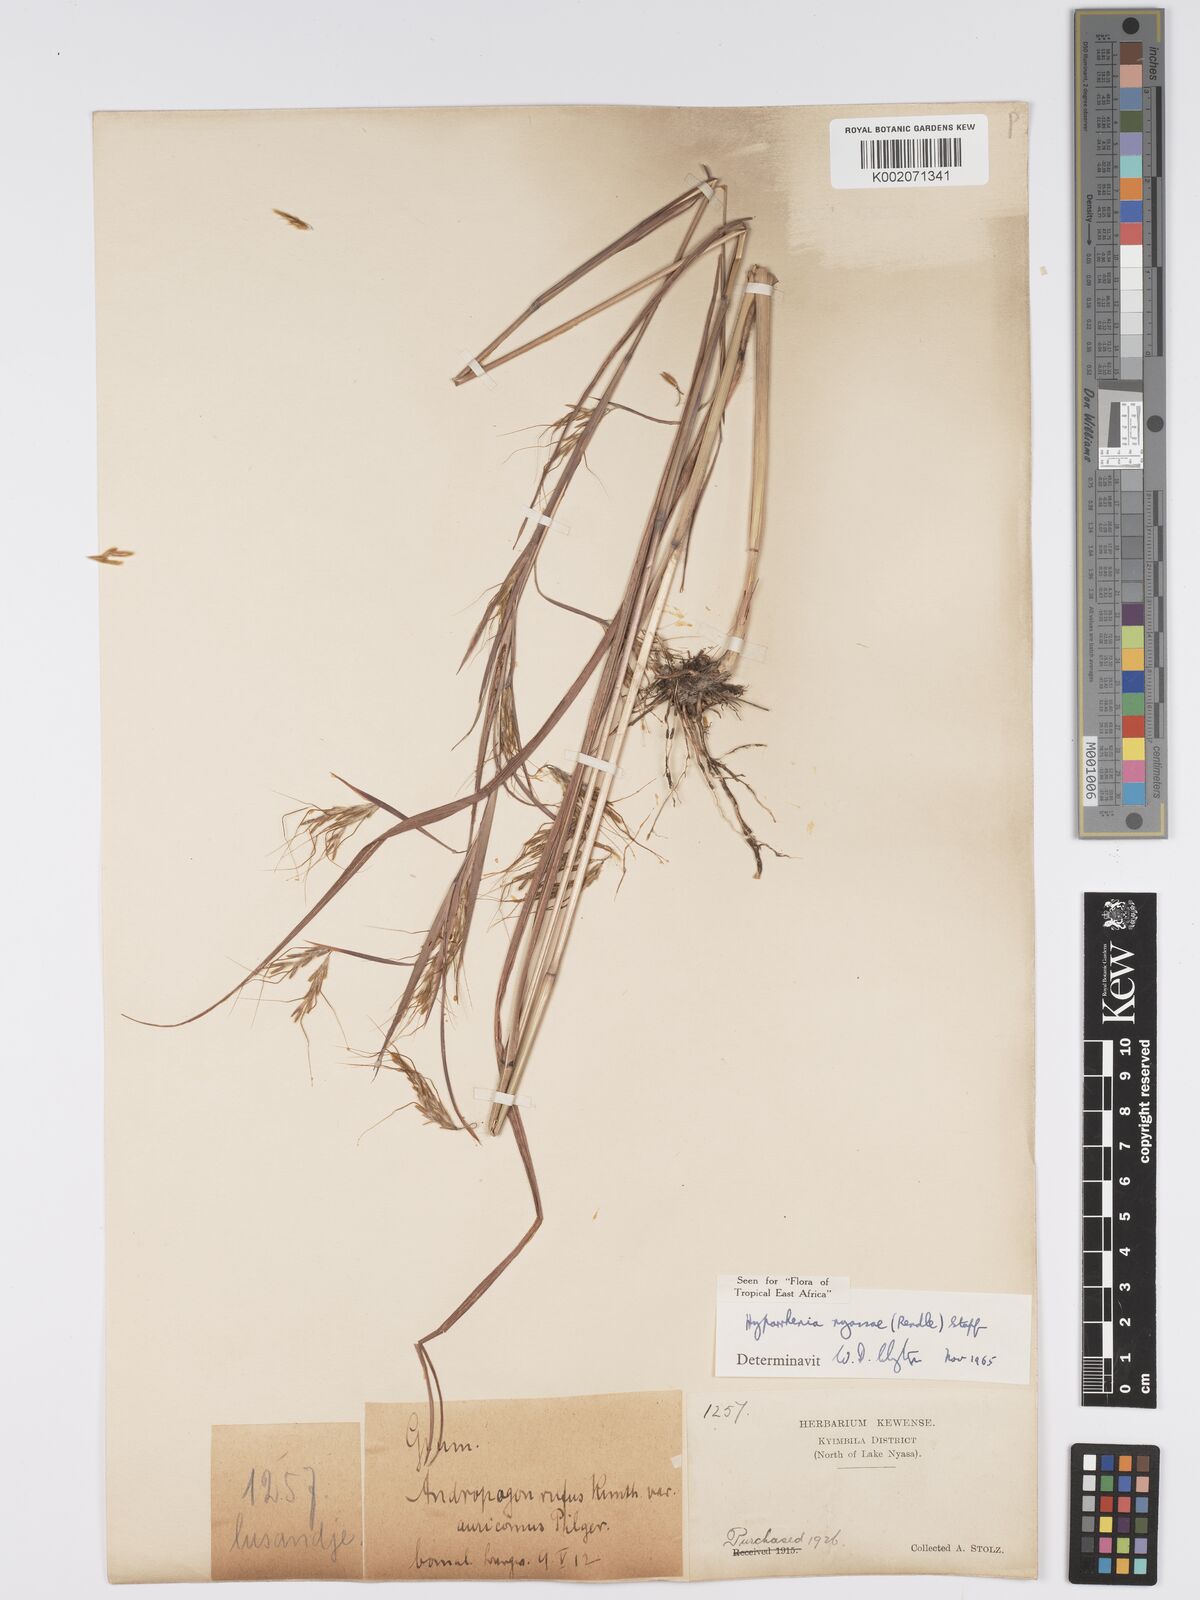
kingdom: Plantae
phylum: Tracheophyta
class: Liliopsida
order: Poales
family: Poaceae
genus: Hyparrhenia
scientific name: Hyparrhenia nyassae
